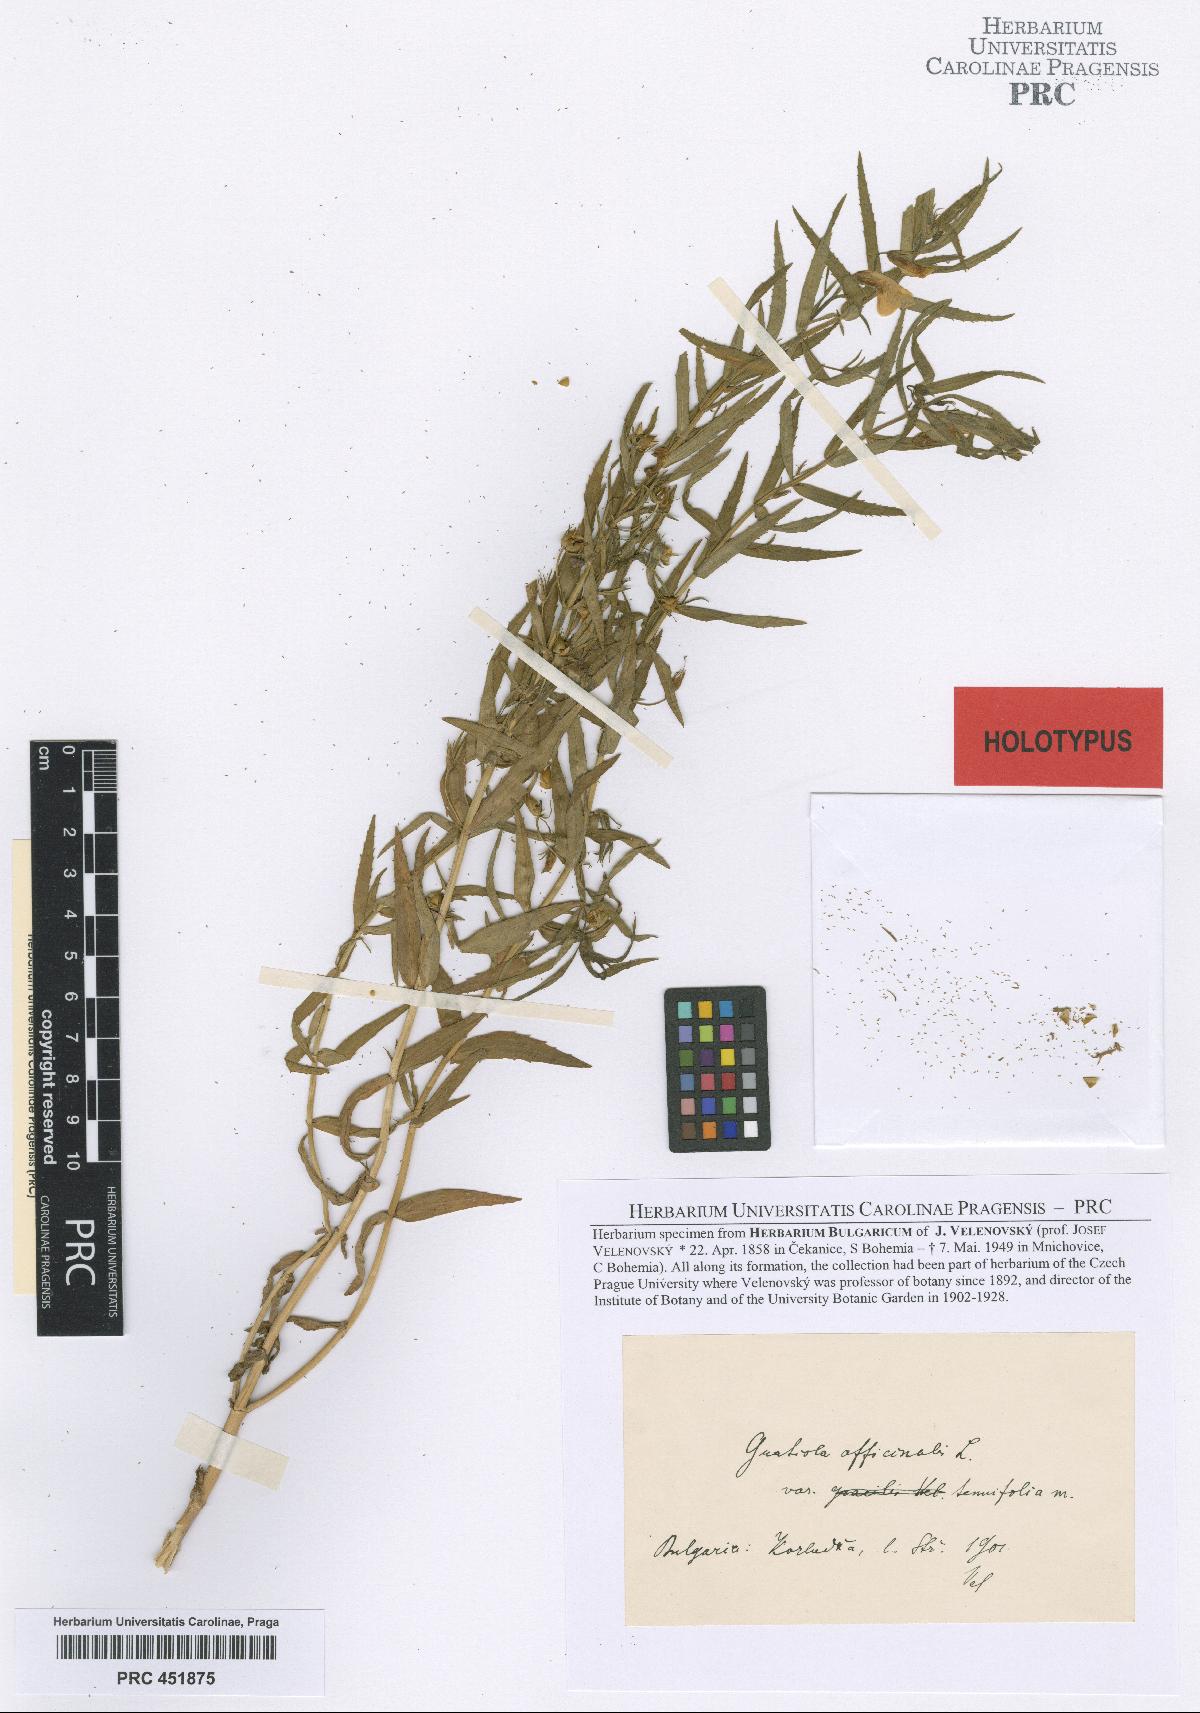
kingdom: Plantae
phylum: Tracheophyta
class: Magnoliopsida
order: Lamiales
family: Plantaginaceae
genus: Gratiola
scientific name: Gratiola officinalis
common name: Gratiola
